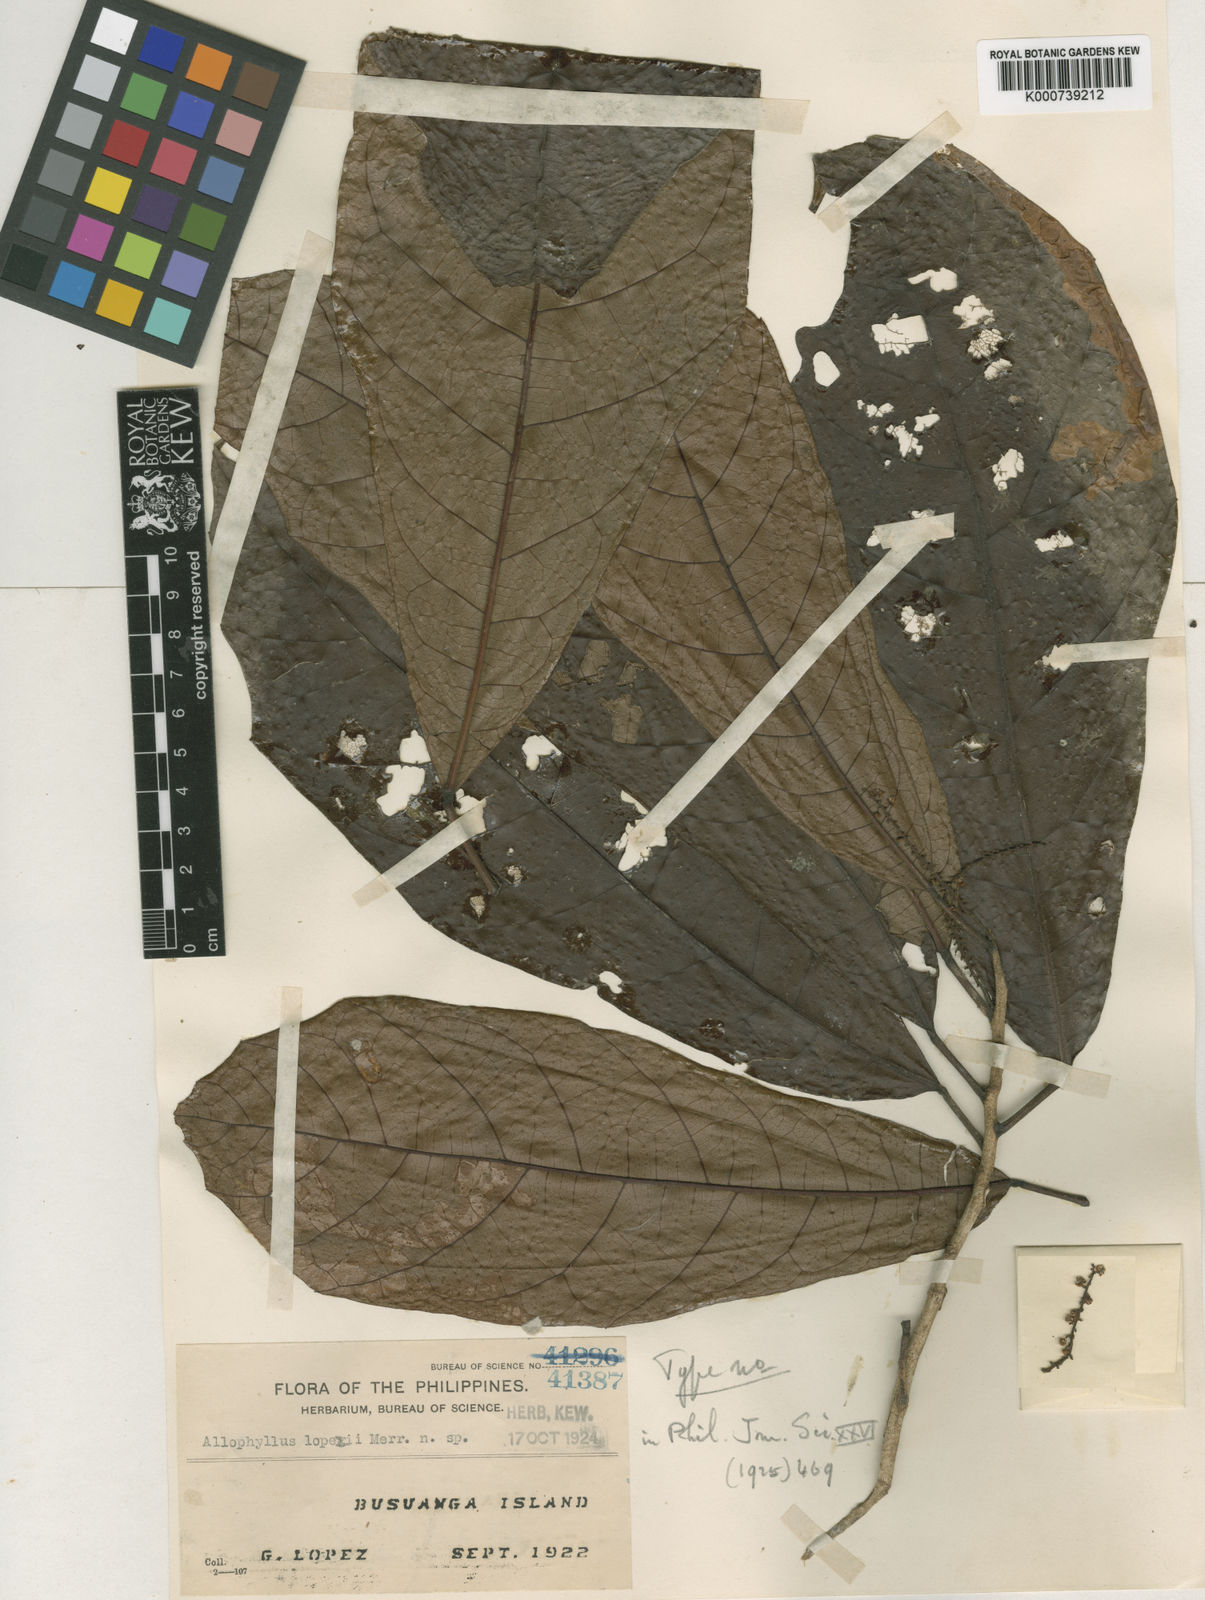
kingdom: Plantae
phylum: Tracheophyta
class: Magnoliopsida
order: Sapindales
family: Sapindaceae
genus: Allophylus
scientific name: Allophylus lopezii
